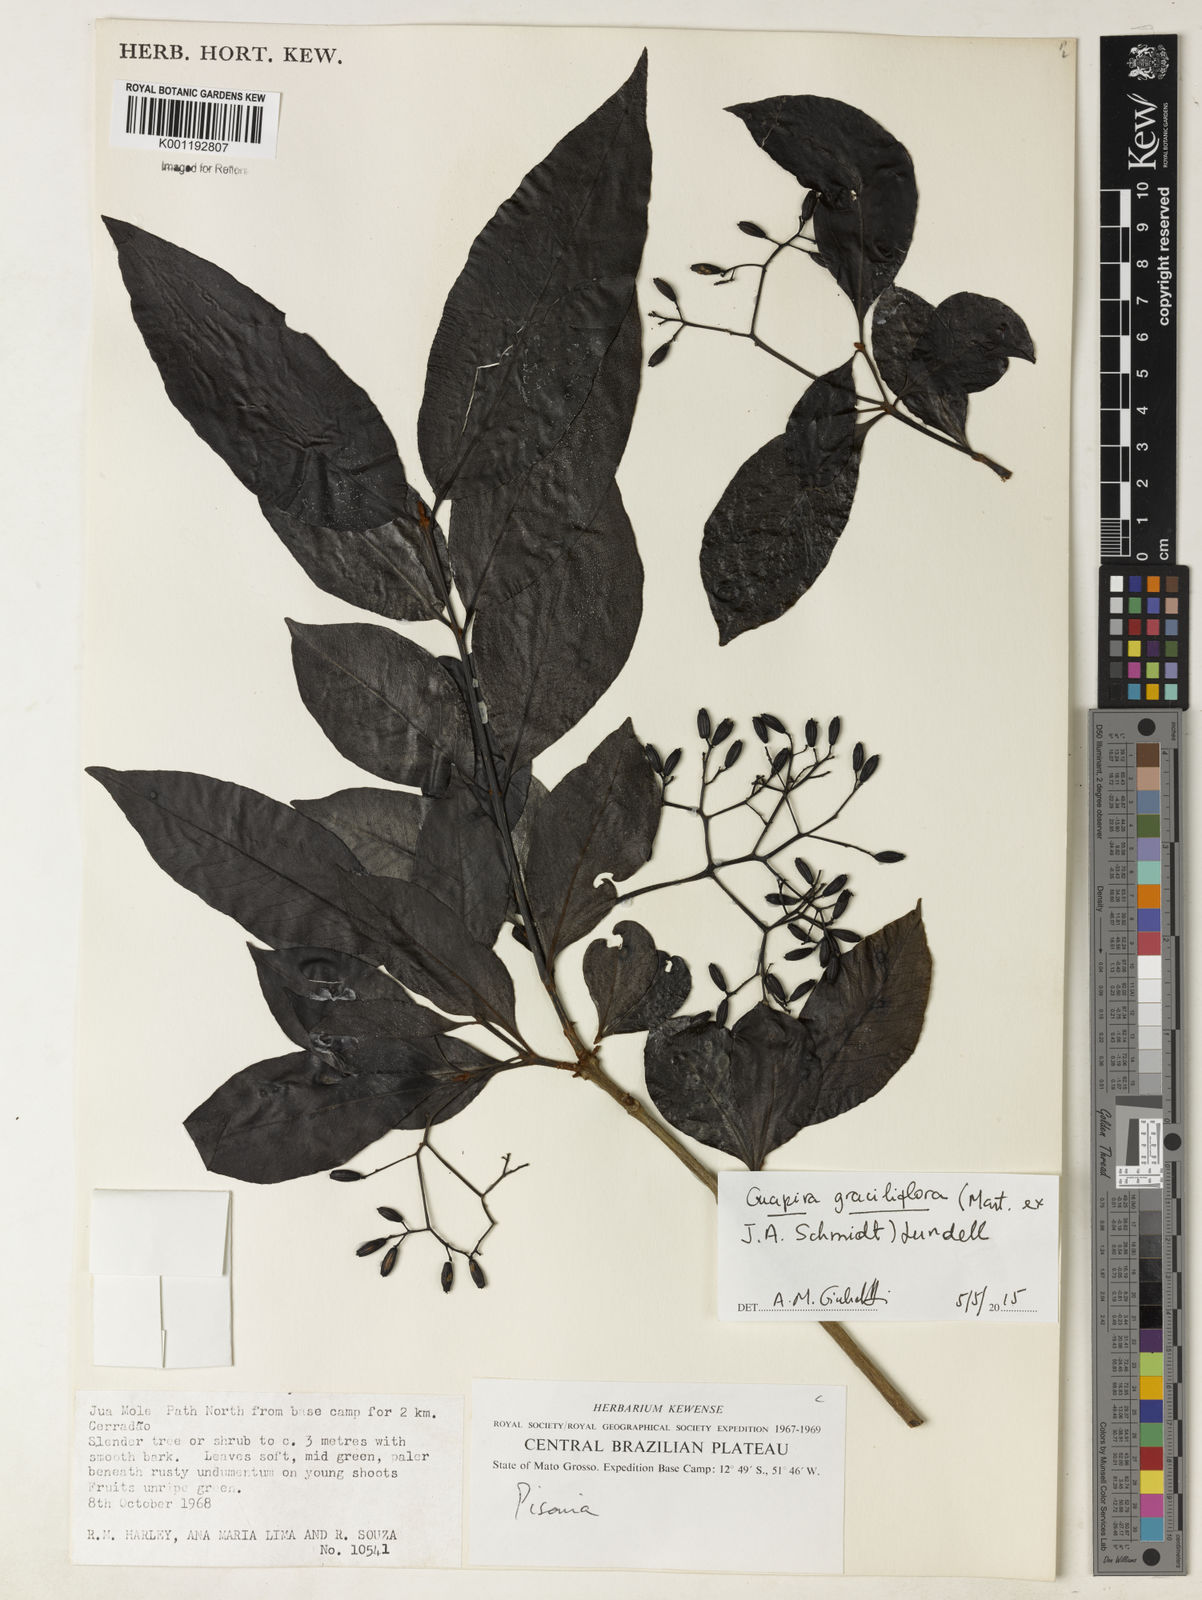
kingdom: Plantae
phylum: Tracheophyta
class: Magnoliopsida
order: Caryophyllales
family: Nyctaginaceae
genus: Guapira
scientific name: Guapira graciliflora
